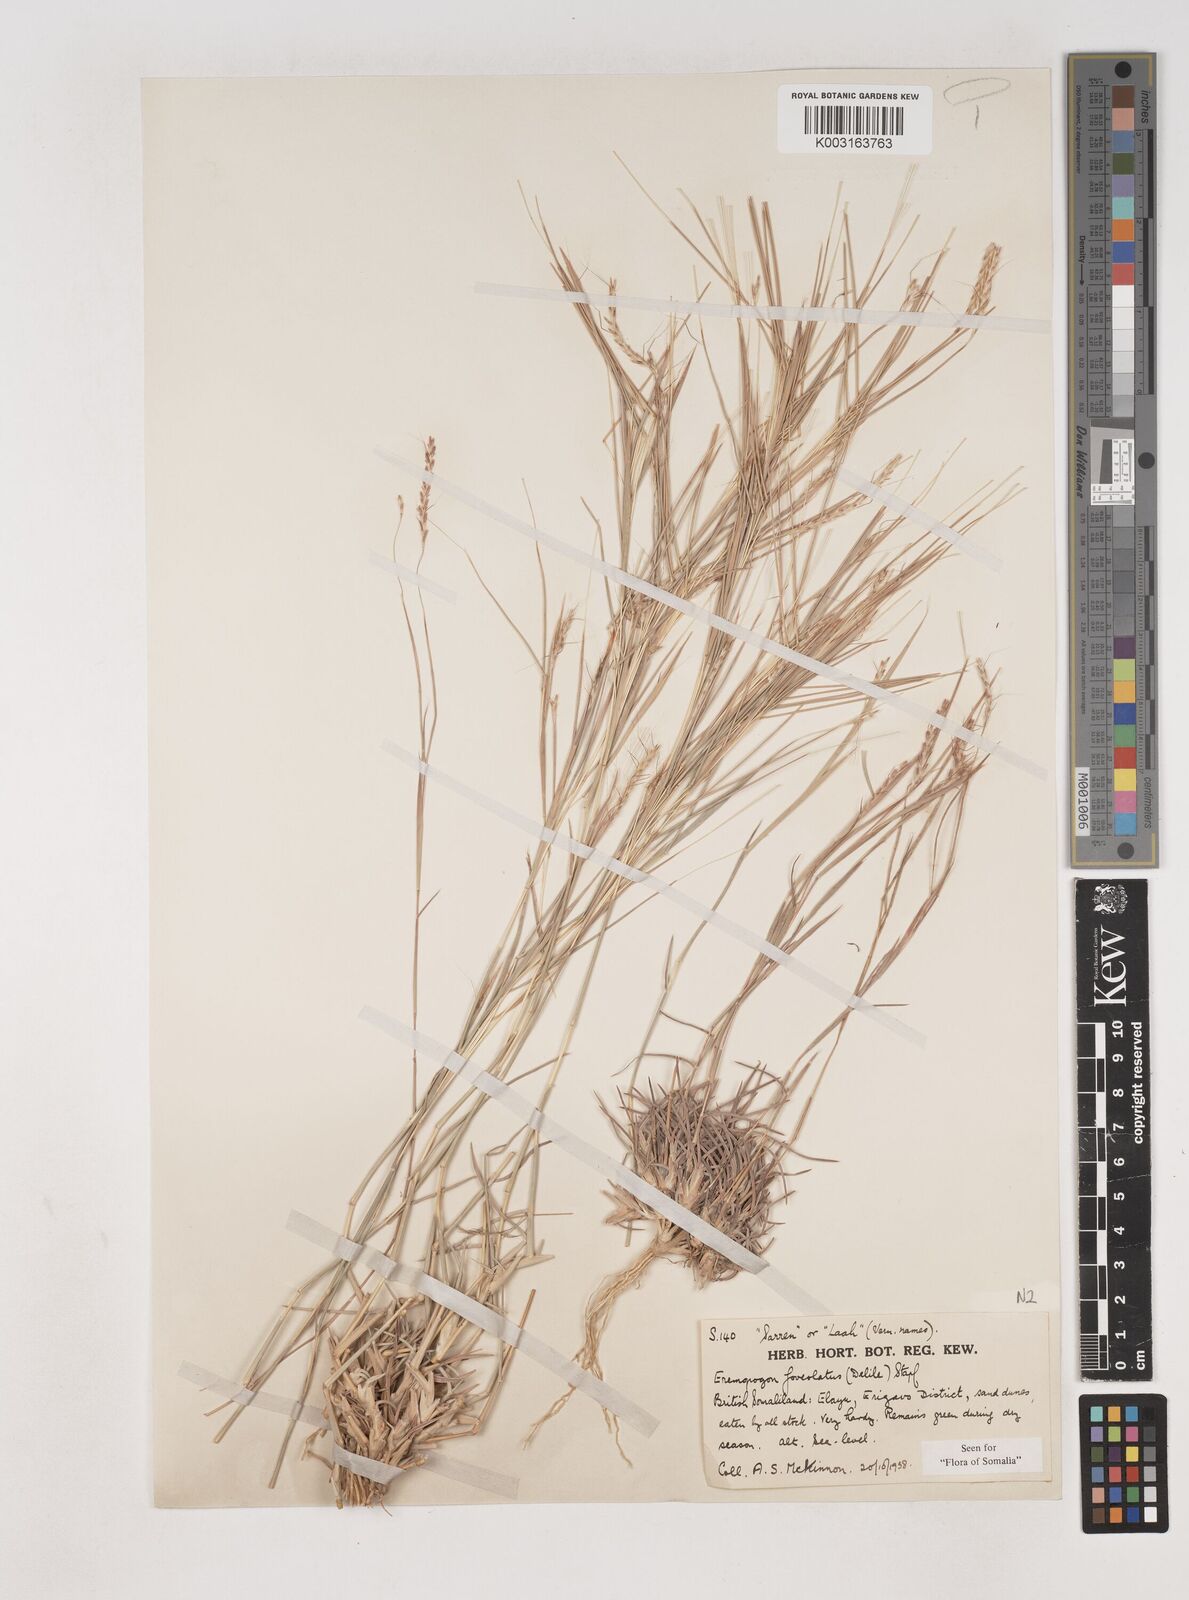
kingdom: Plantae
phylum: Tracheophyta
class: Liliopsida
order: Poales
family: Poaceae
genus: Dichanthium
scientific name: Dichanthium foveolatum
